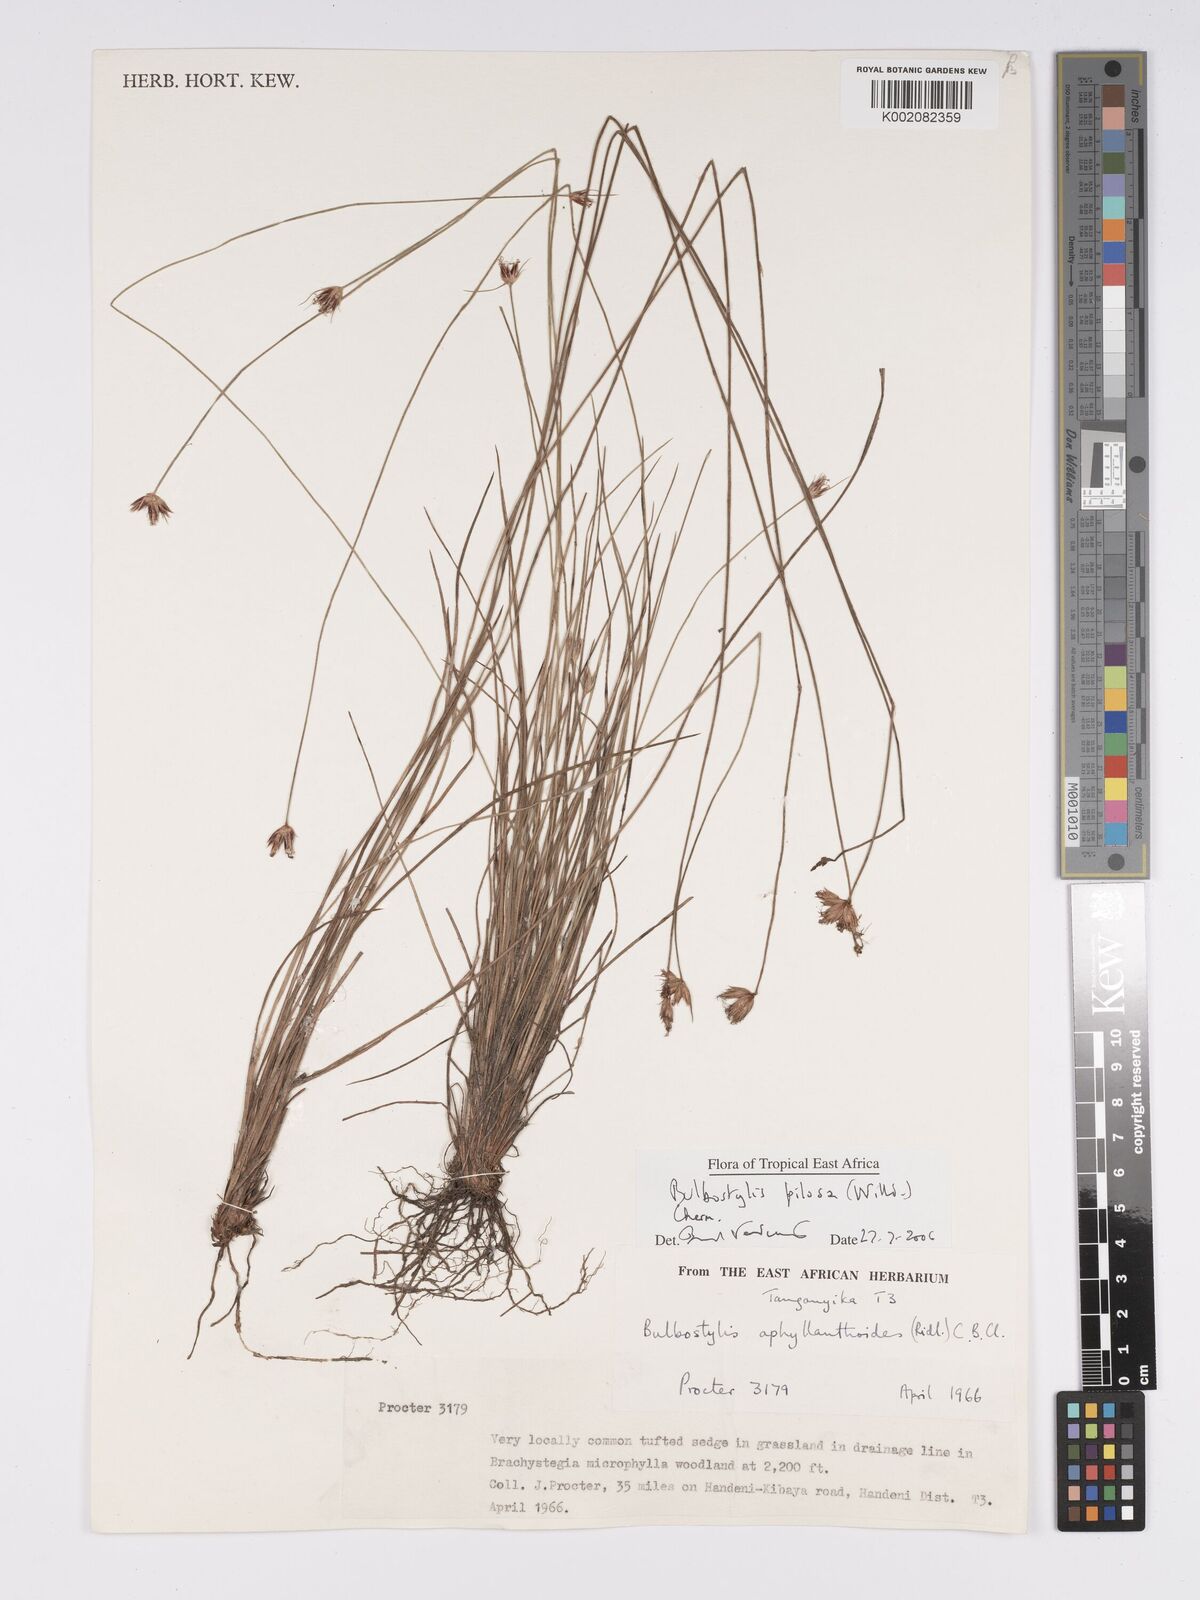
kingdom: Plantae
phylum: Tracheophyta
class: Liliopsida
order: Poales
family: Cyperaceae
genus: Bulbostylis
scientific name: Bulbostylis pilosa
